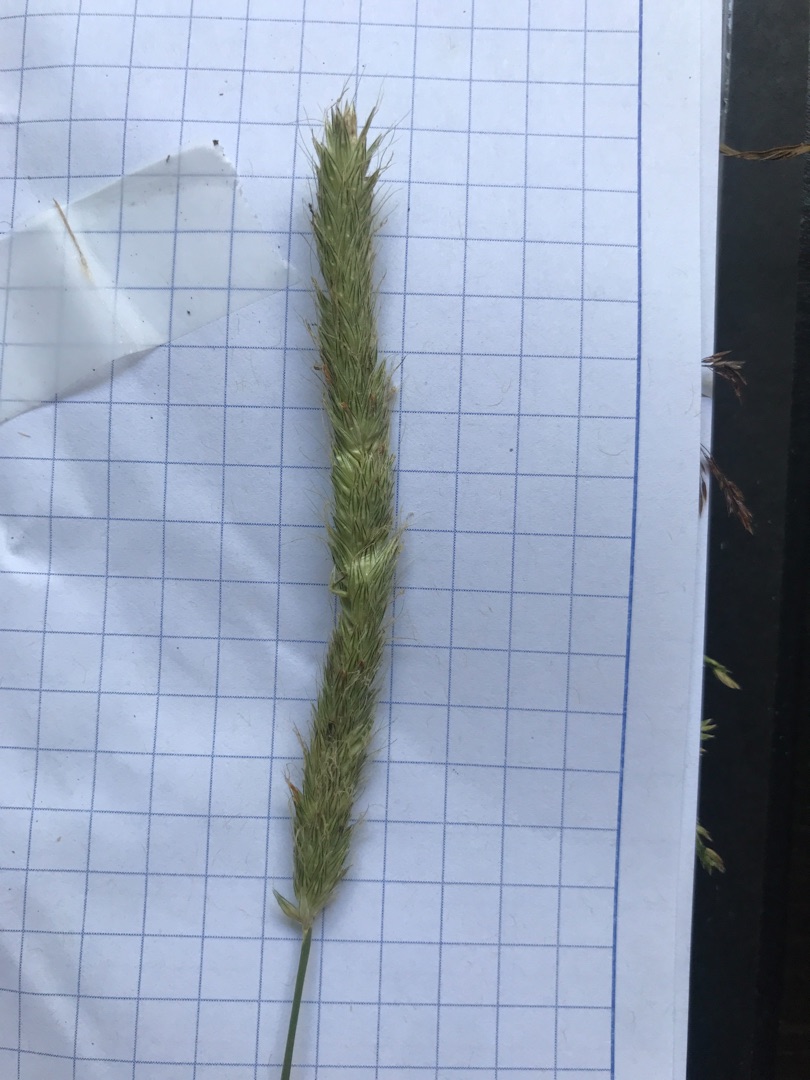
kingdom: Plantae
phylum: Tracheophyta
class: Liliopsida
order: Poales
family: Poaceae
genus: Alopecurus
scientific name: Alopecurus pratensis
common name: Eng-rævehale
